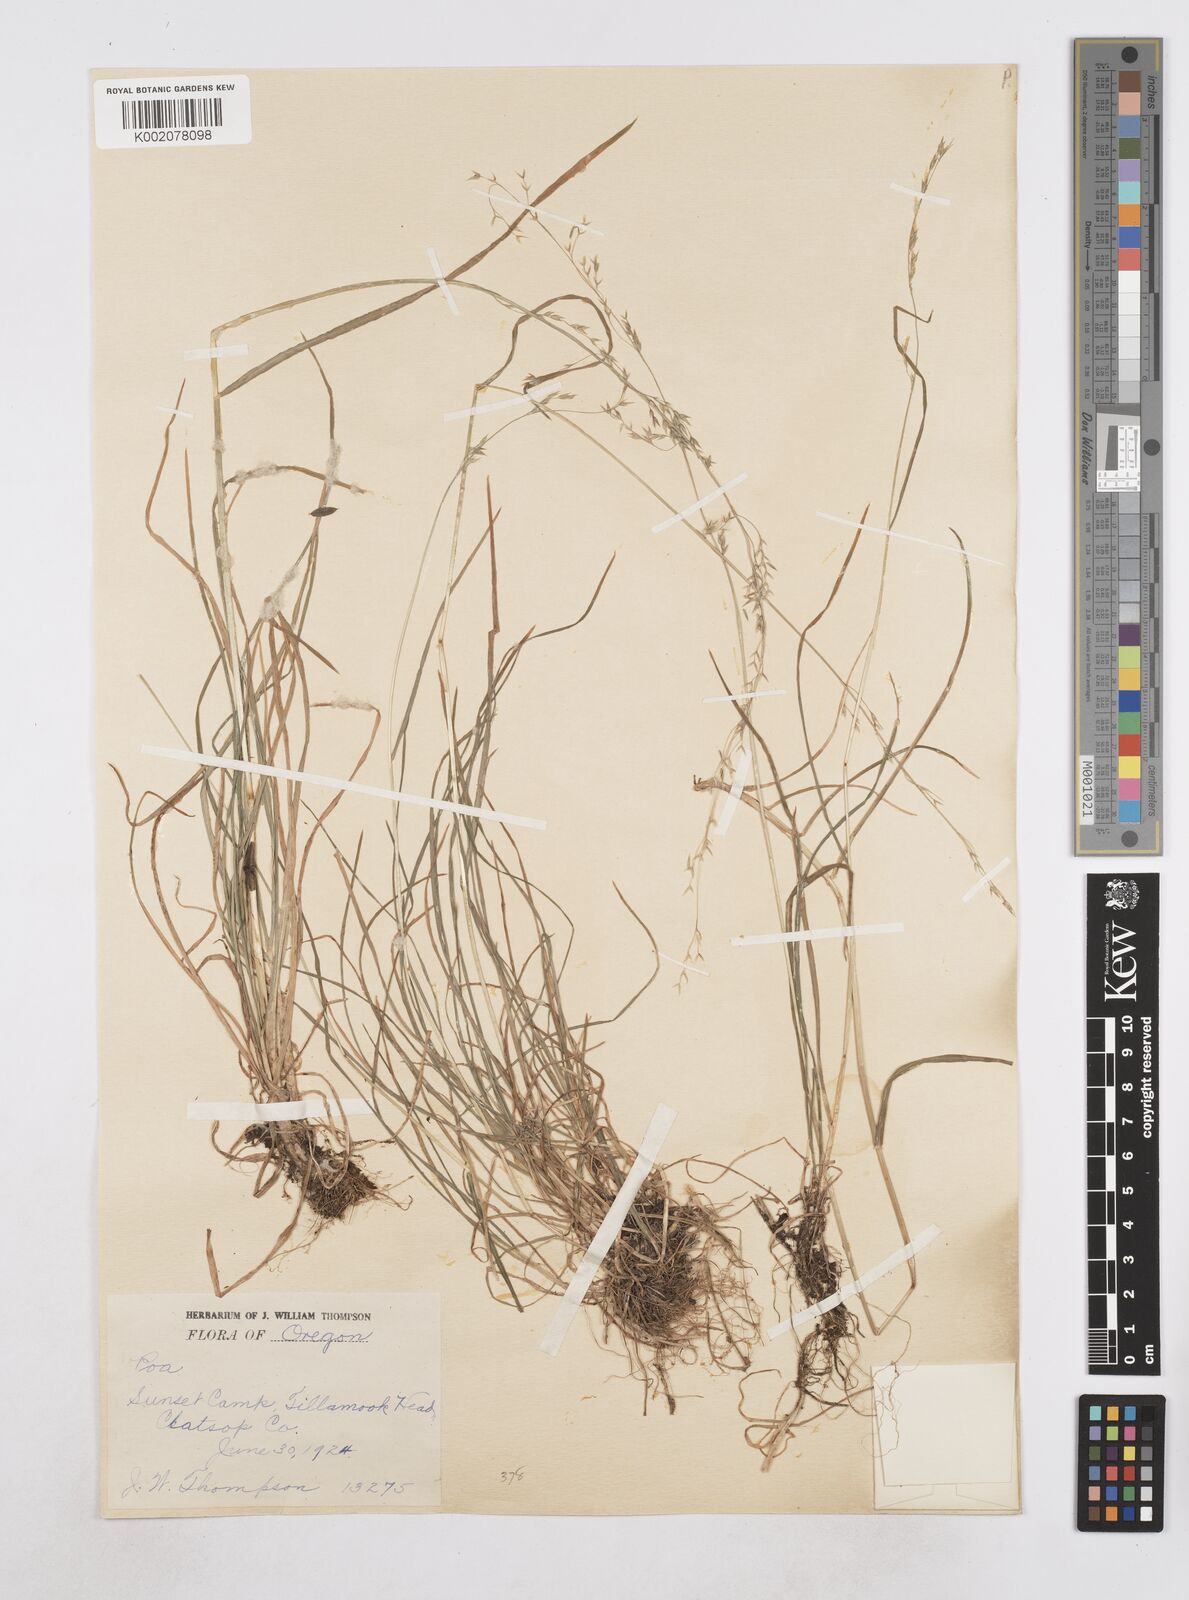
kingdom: Plantae
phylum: Tracheophyta
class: Liliopsida
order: Poales
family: Poaceae
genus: Poa
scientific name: Poa
